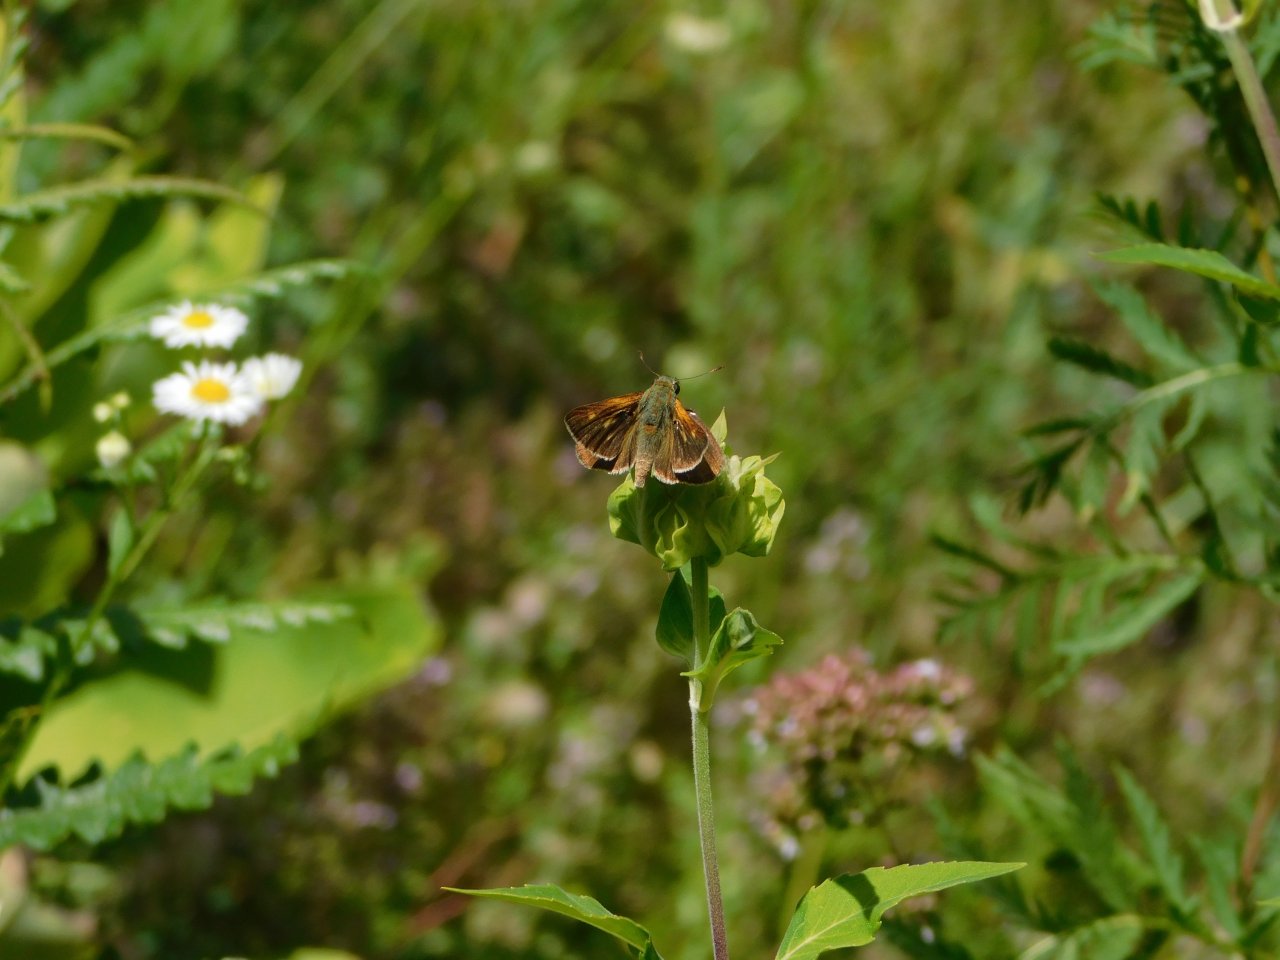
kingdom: Animalia
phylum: Arthropoda
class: Insecta
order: Lepidoptera
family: Hesperiidae
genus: Polites
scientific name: Polites themistocles
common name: Tawny-edged Skipper
